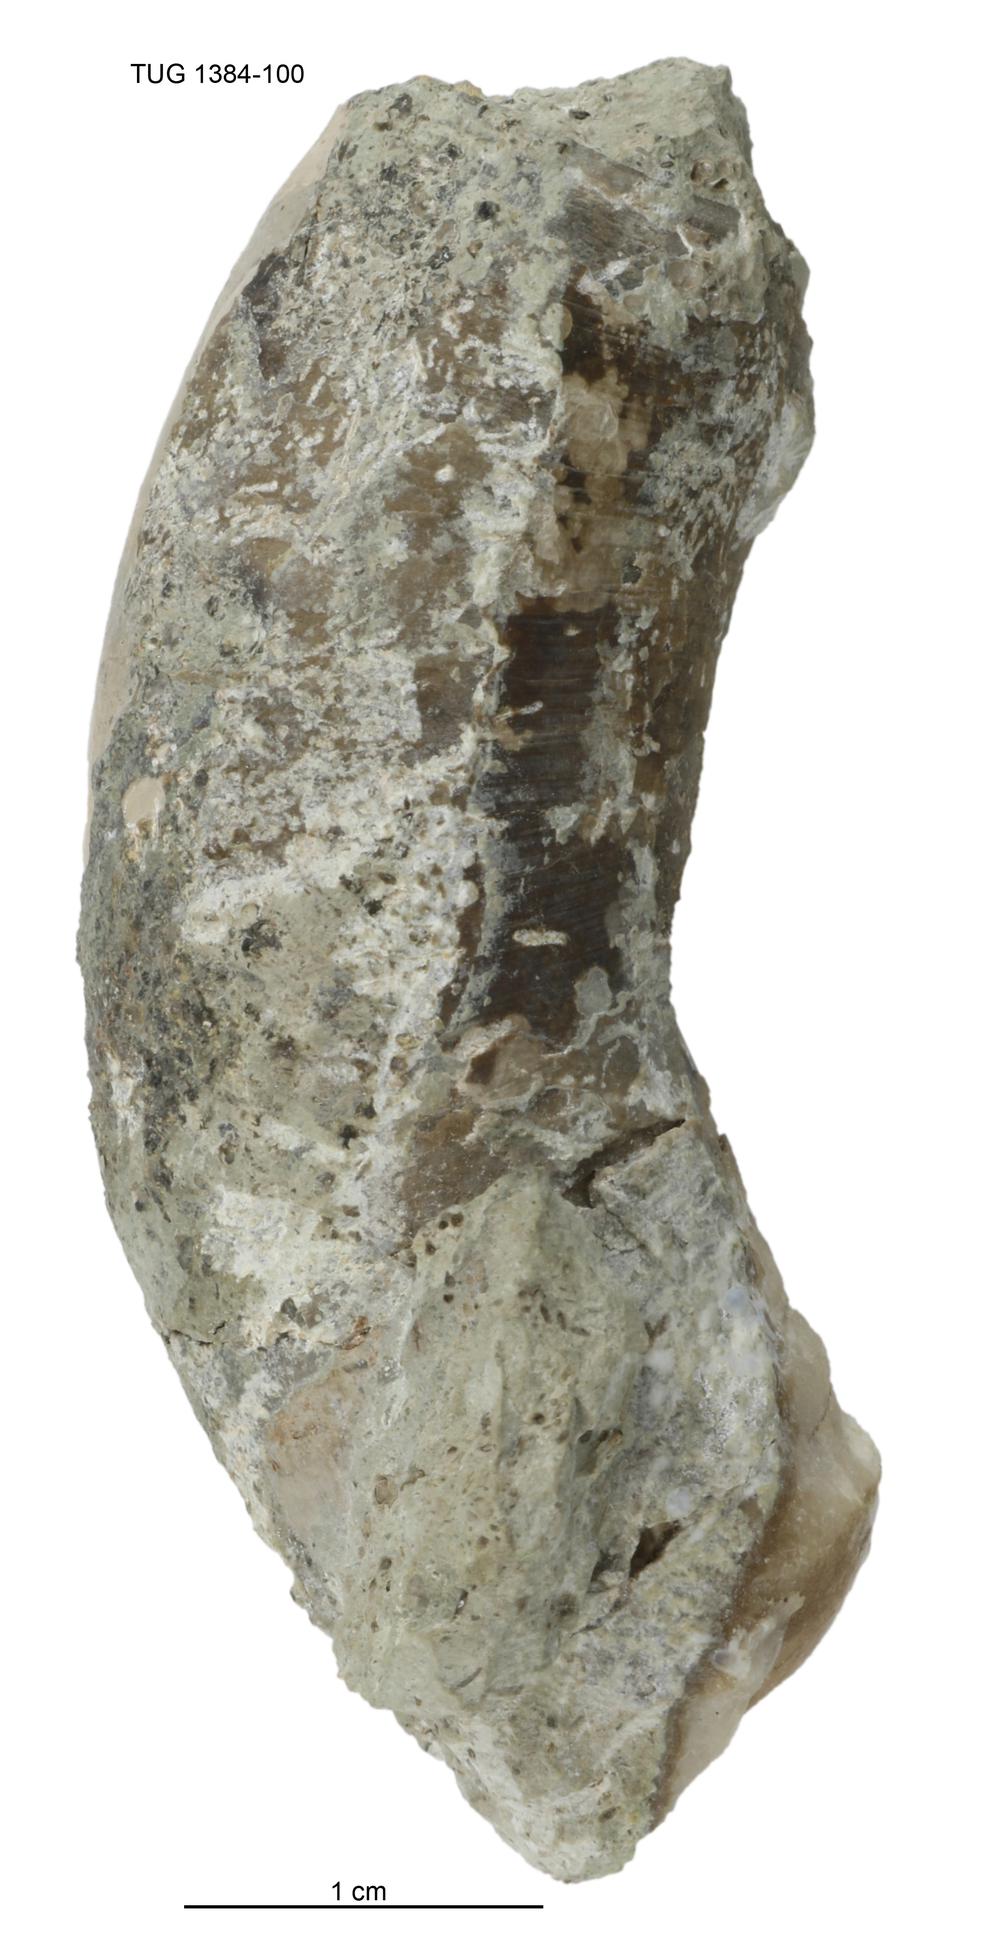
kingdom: Animalia
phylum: Mollusca
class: Cephalopoda
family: Estonioceratidae
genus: Tragoceras
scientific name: Tragoceras
